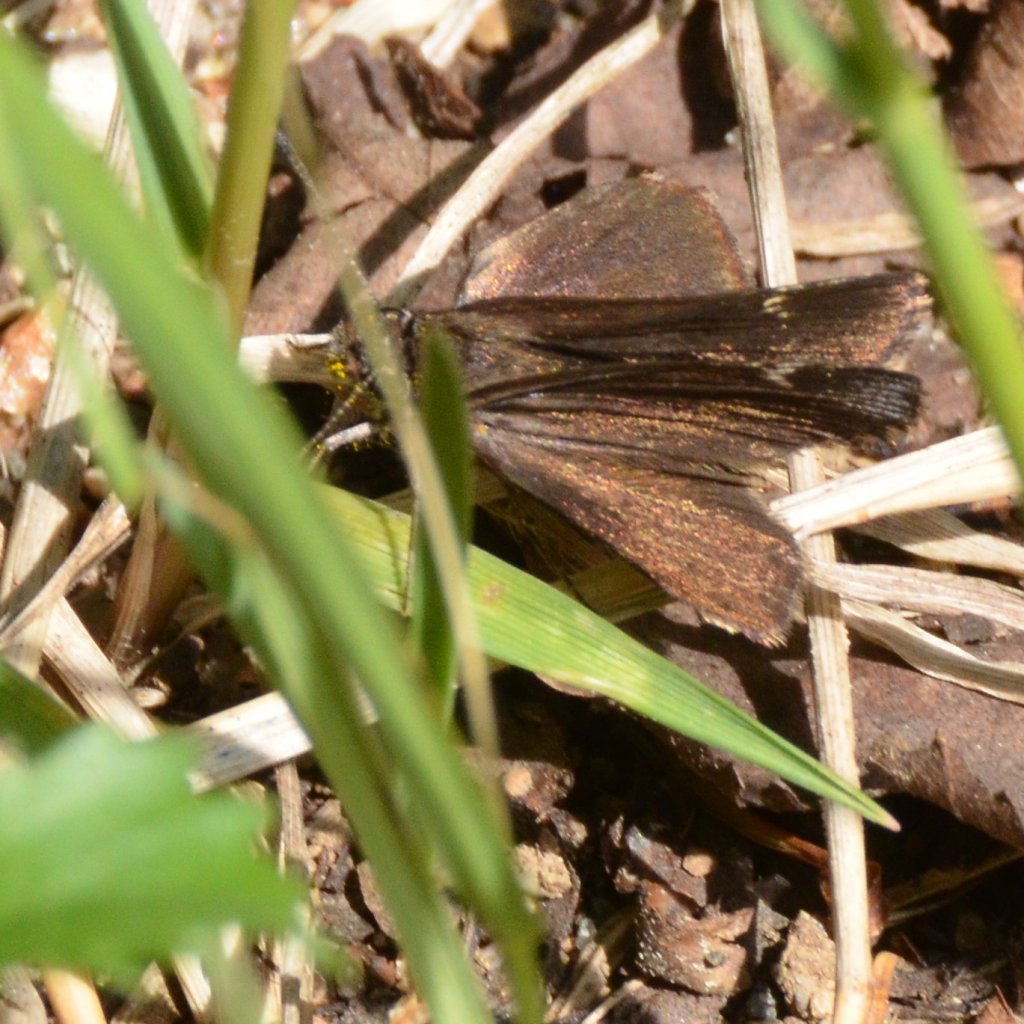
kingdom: Animalia
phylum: Arthropoda
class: Insecta
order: Lepidoptera
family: Hesperiidae
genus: Mastor
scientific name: Mastor vialis
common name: Common Roadside-Skipper
